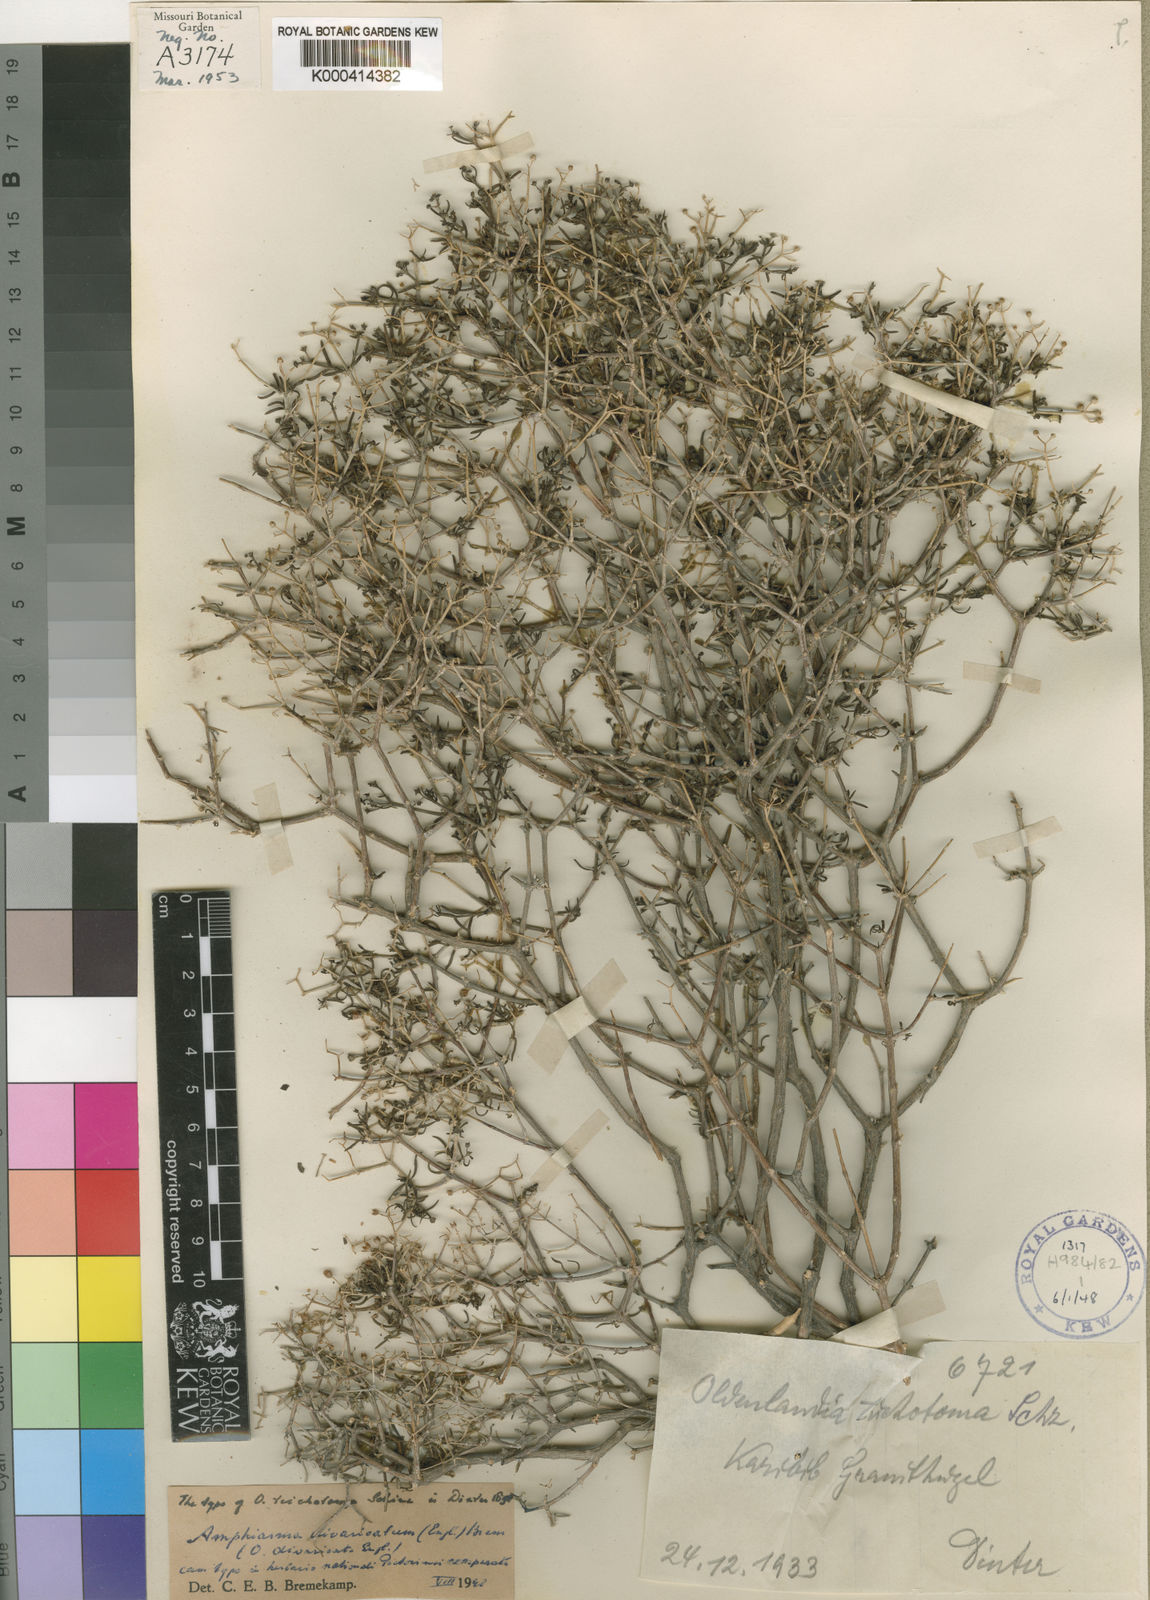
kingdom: Plantae
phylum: Tracheophyta
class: Magnoliopsida
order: Gentianales
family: Rubiaceae
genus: Amphiasma
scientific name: Amphiasma divaricatum
